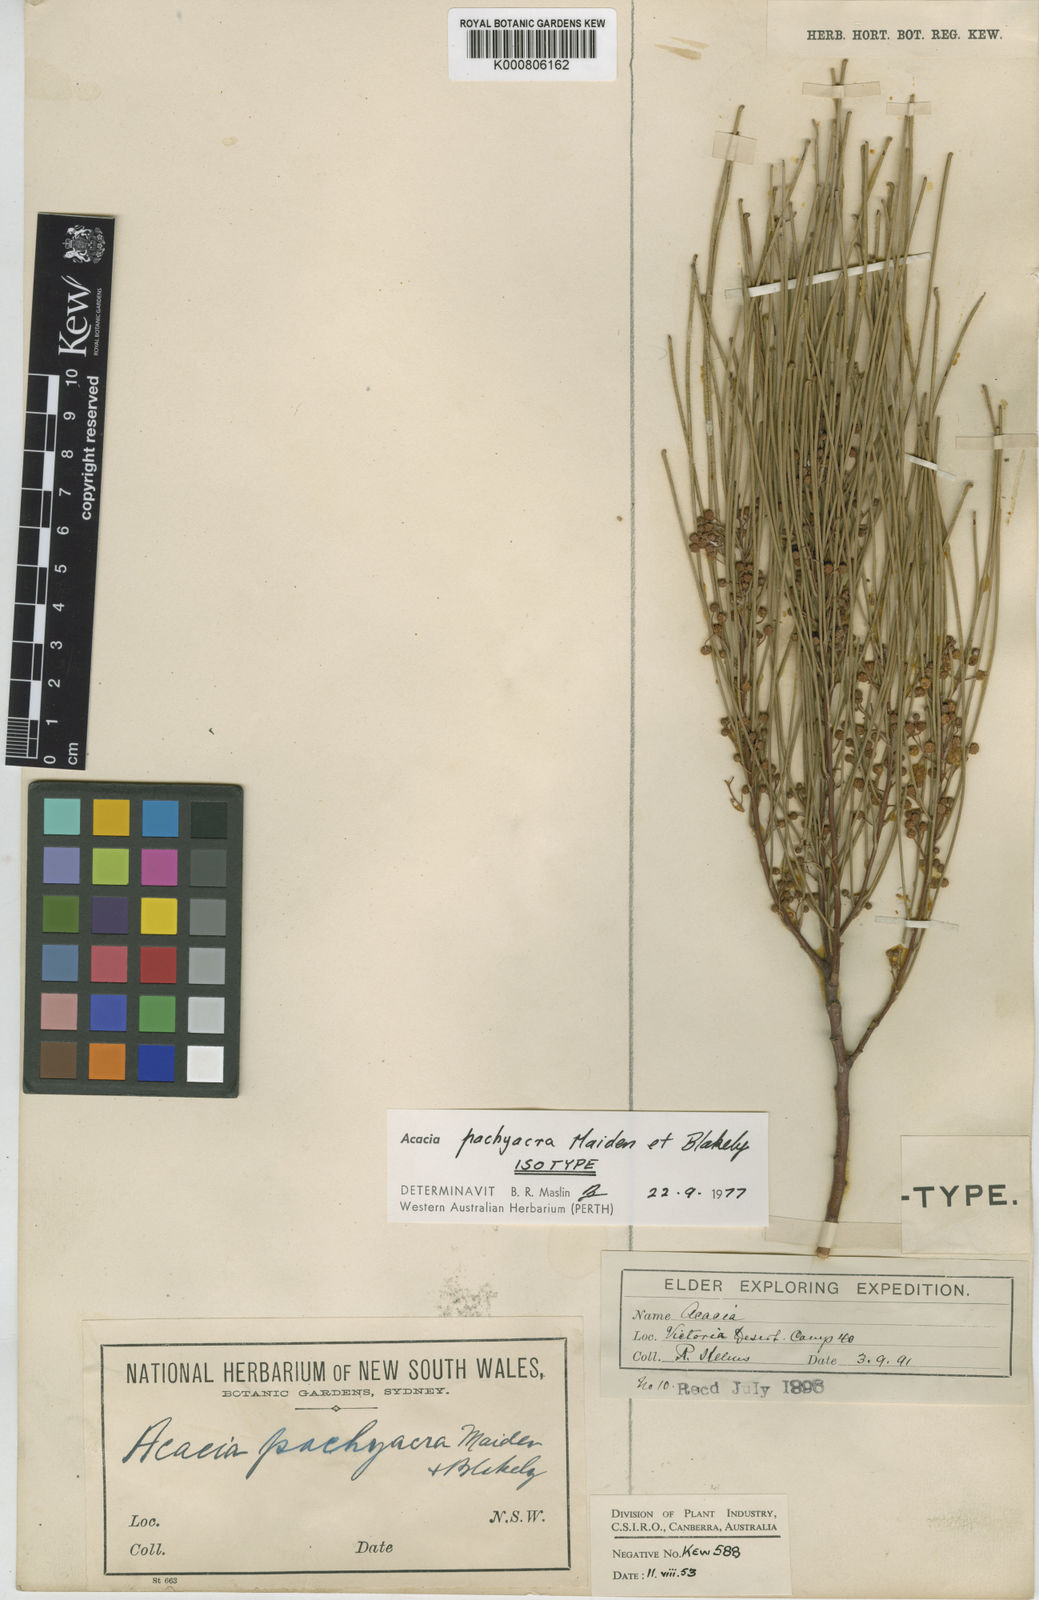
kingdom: Plantae
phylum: Tracheophyta
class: Magnoliopsida
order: Fabales
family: Fabaceae
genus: Acacia
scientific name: Acacia pachyacra
